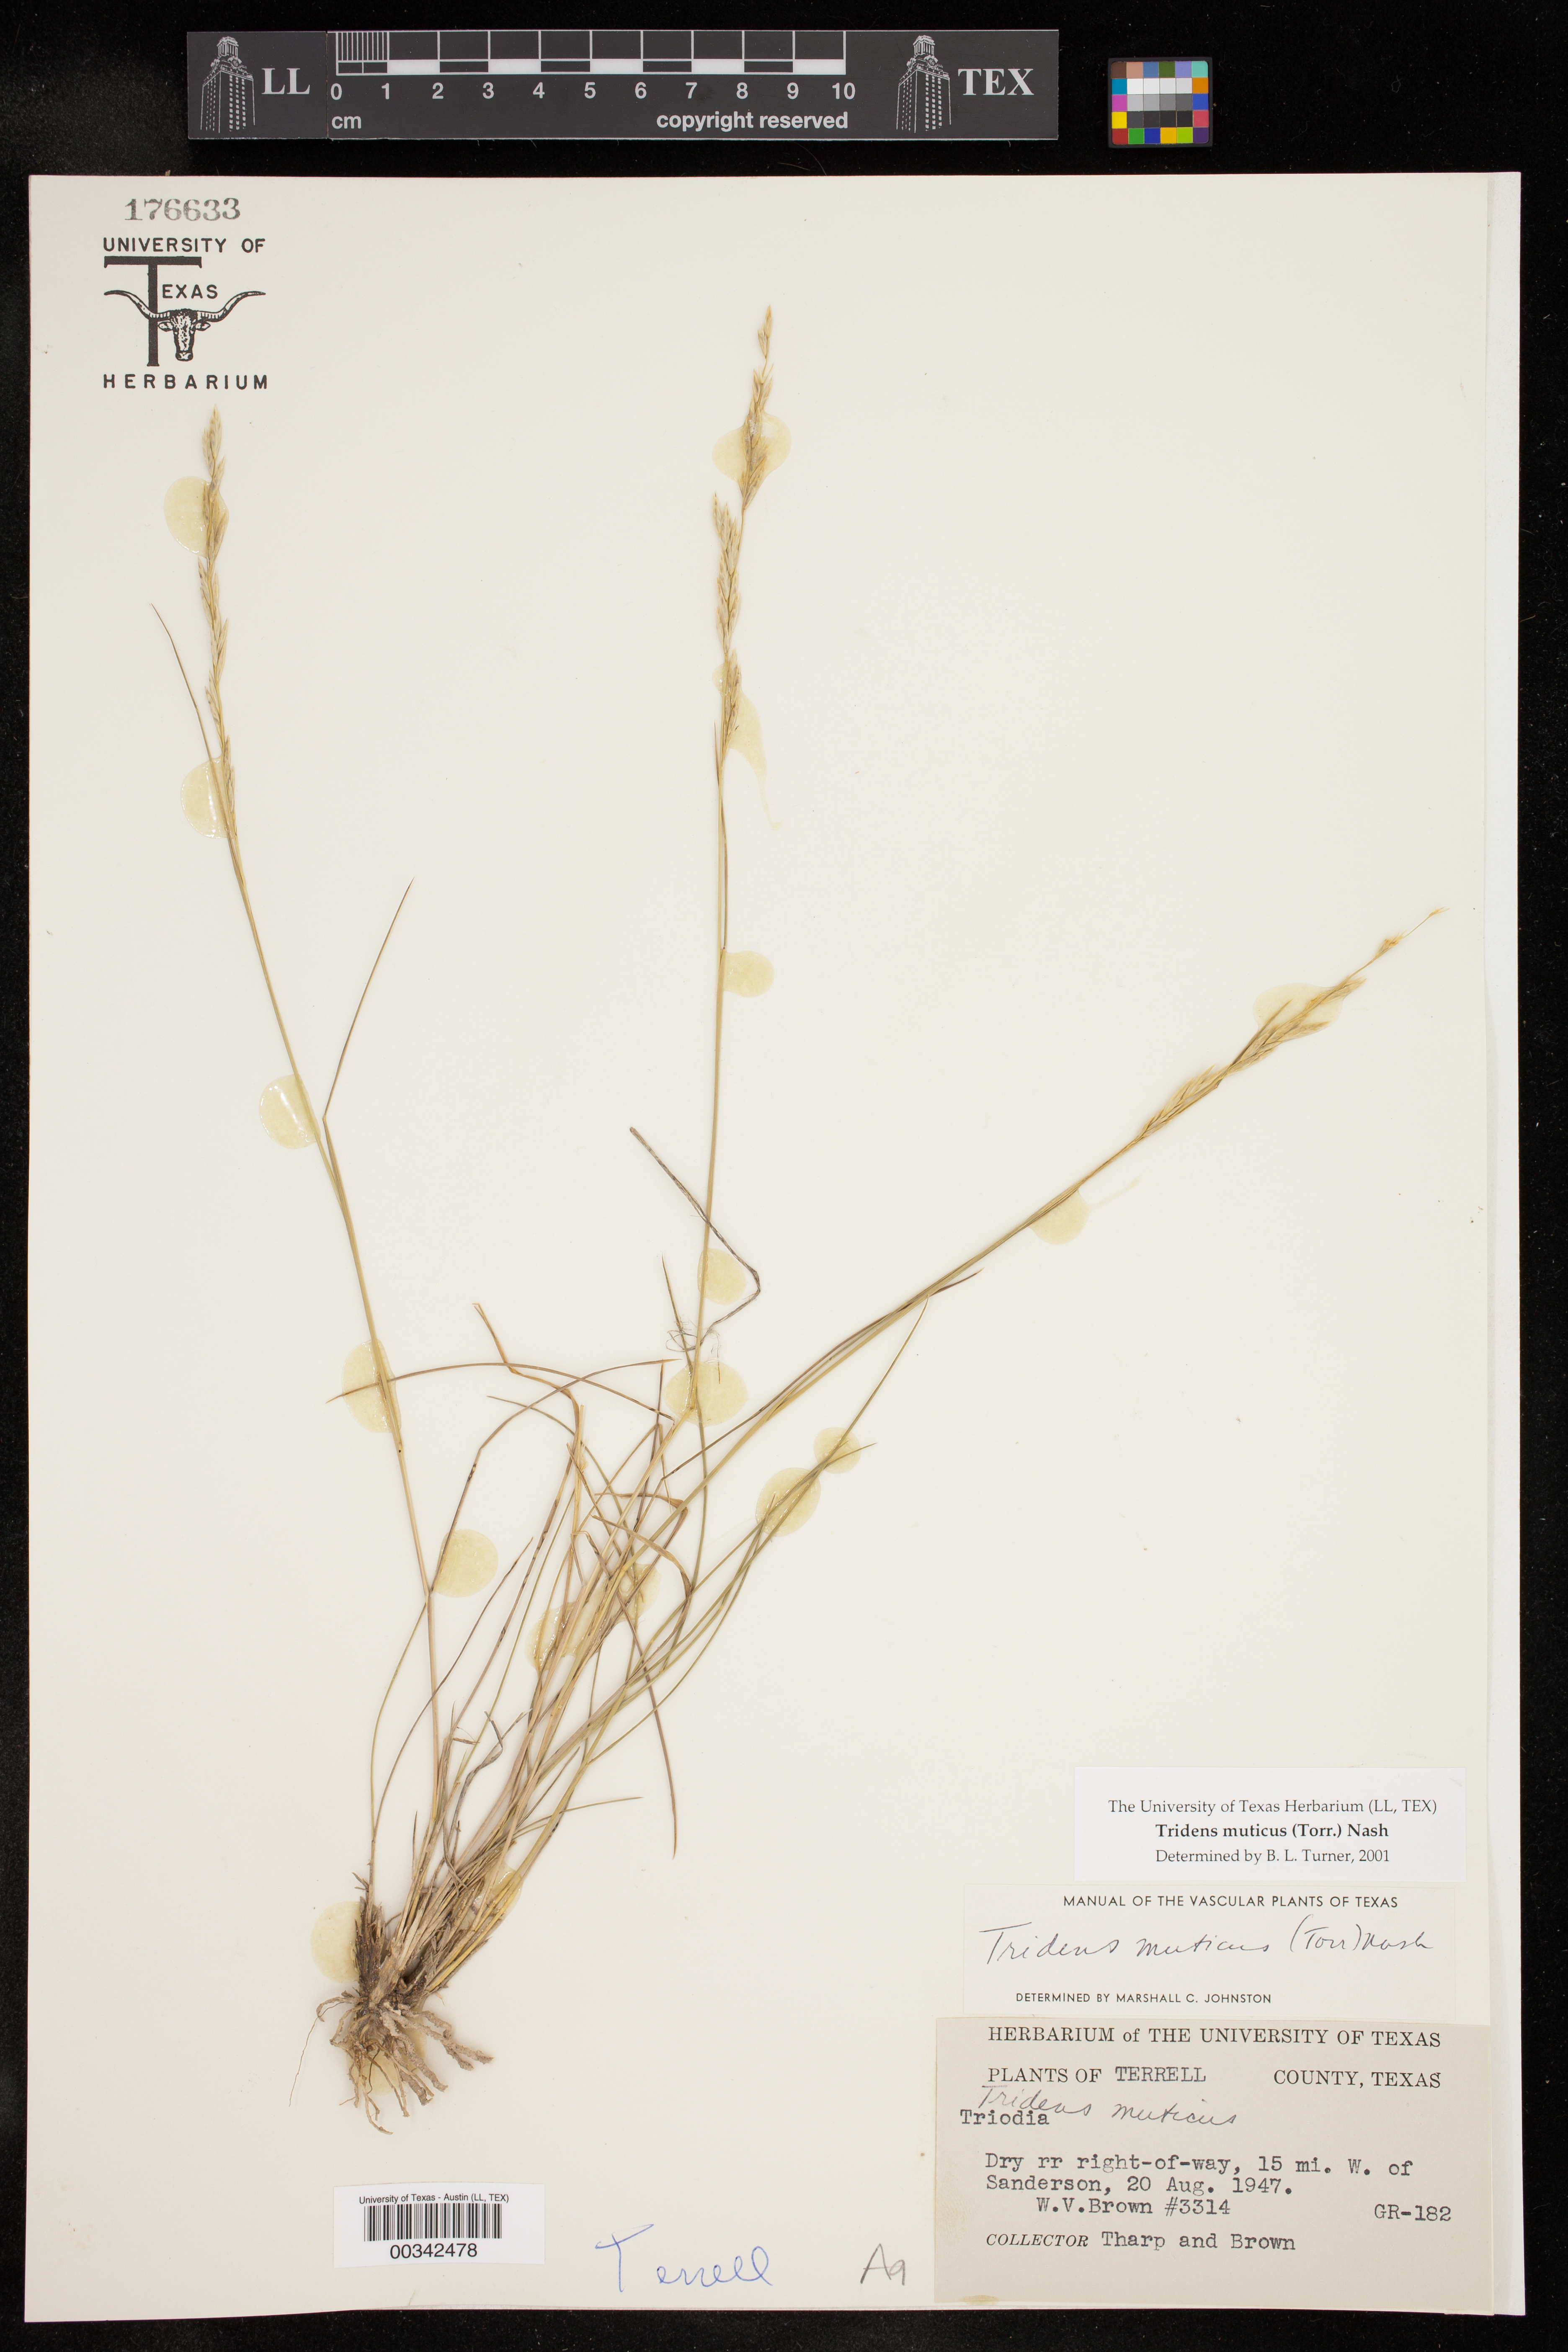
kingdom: Plantae
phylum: Tracheophyta
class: Liliopsida
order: Poales
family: Poaceae
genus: Tridentopsis
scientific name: Tridentopsis mutica
